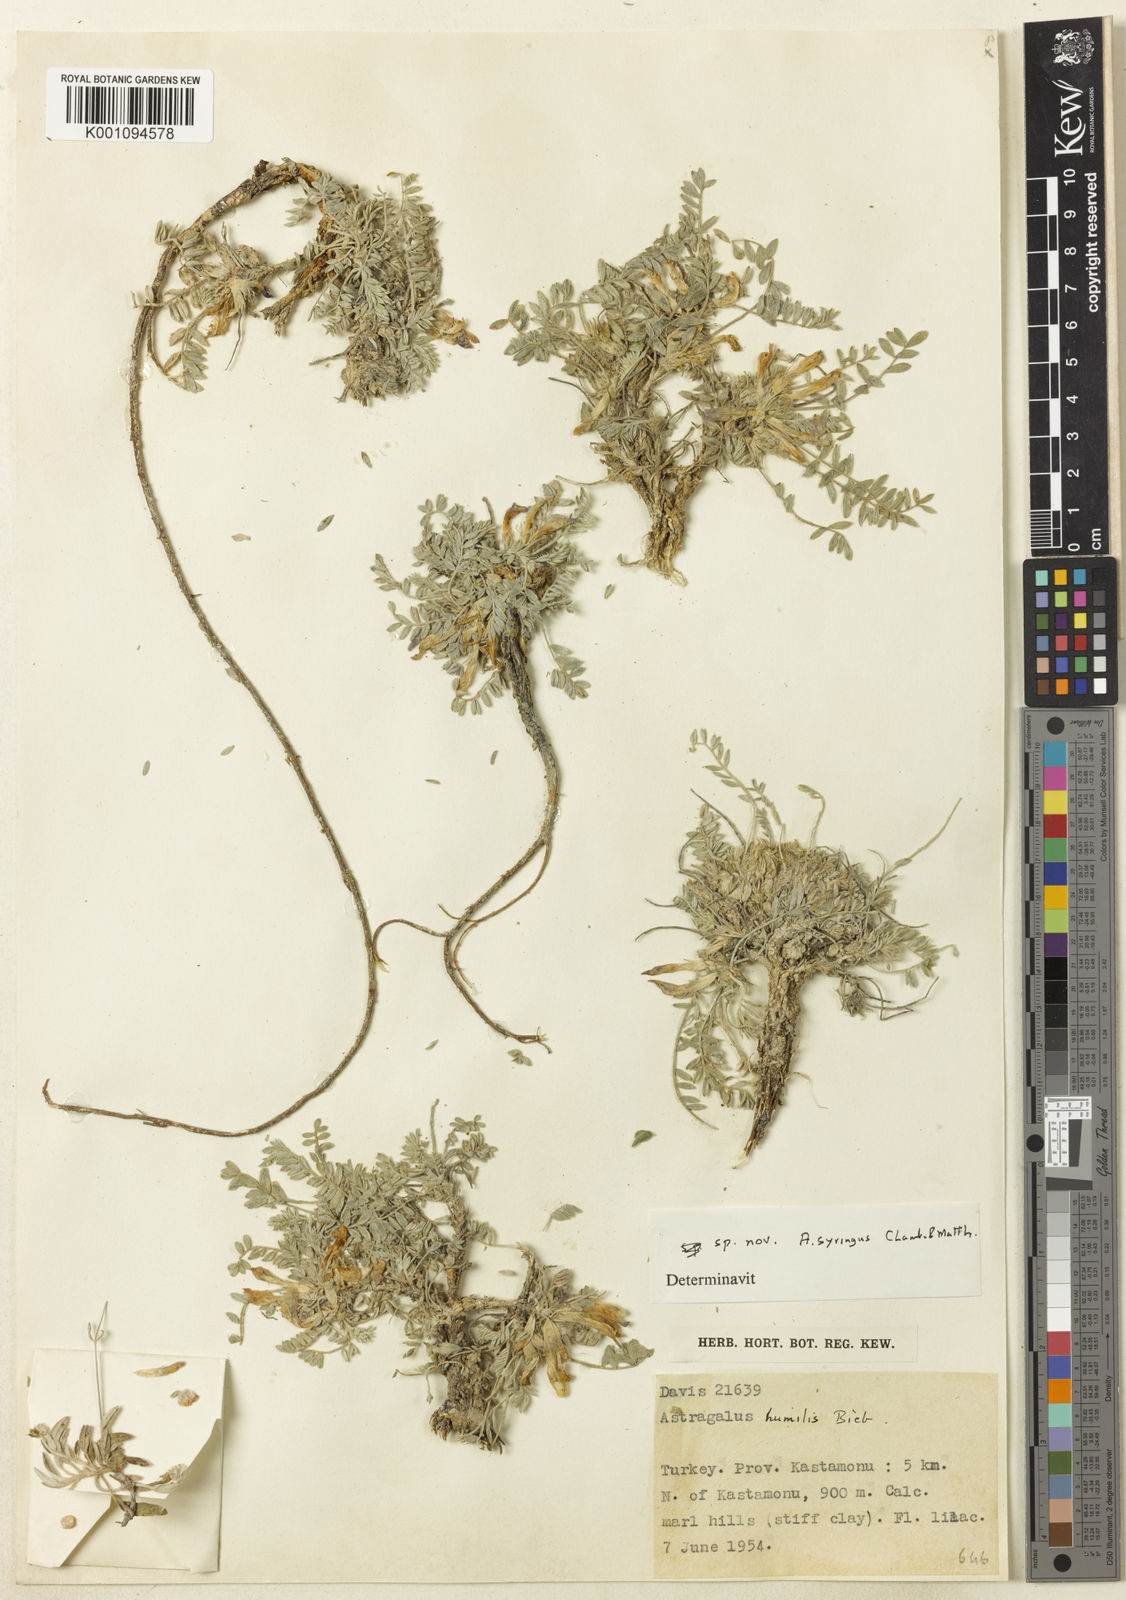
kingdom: Plantae
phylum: Tracheophyta
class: Magnoliopsida
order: Fabales
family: Fabaceae
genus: Astragalus
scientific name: Astragalus
